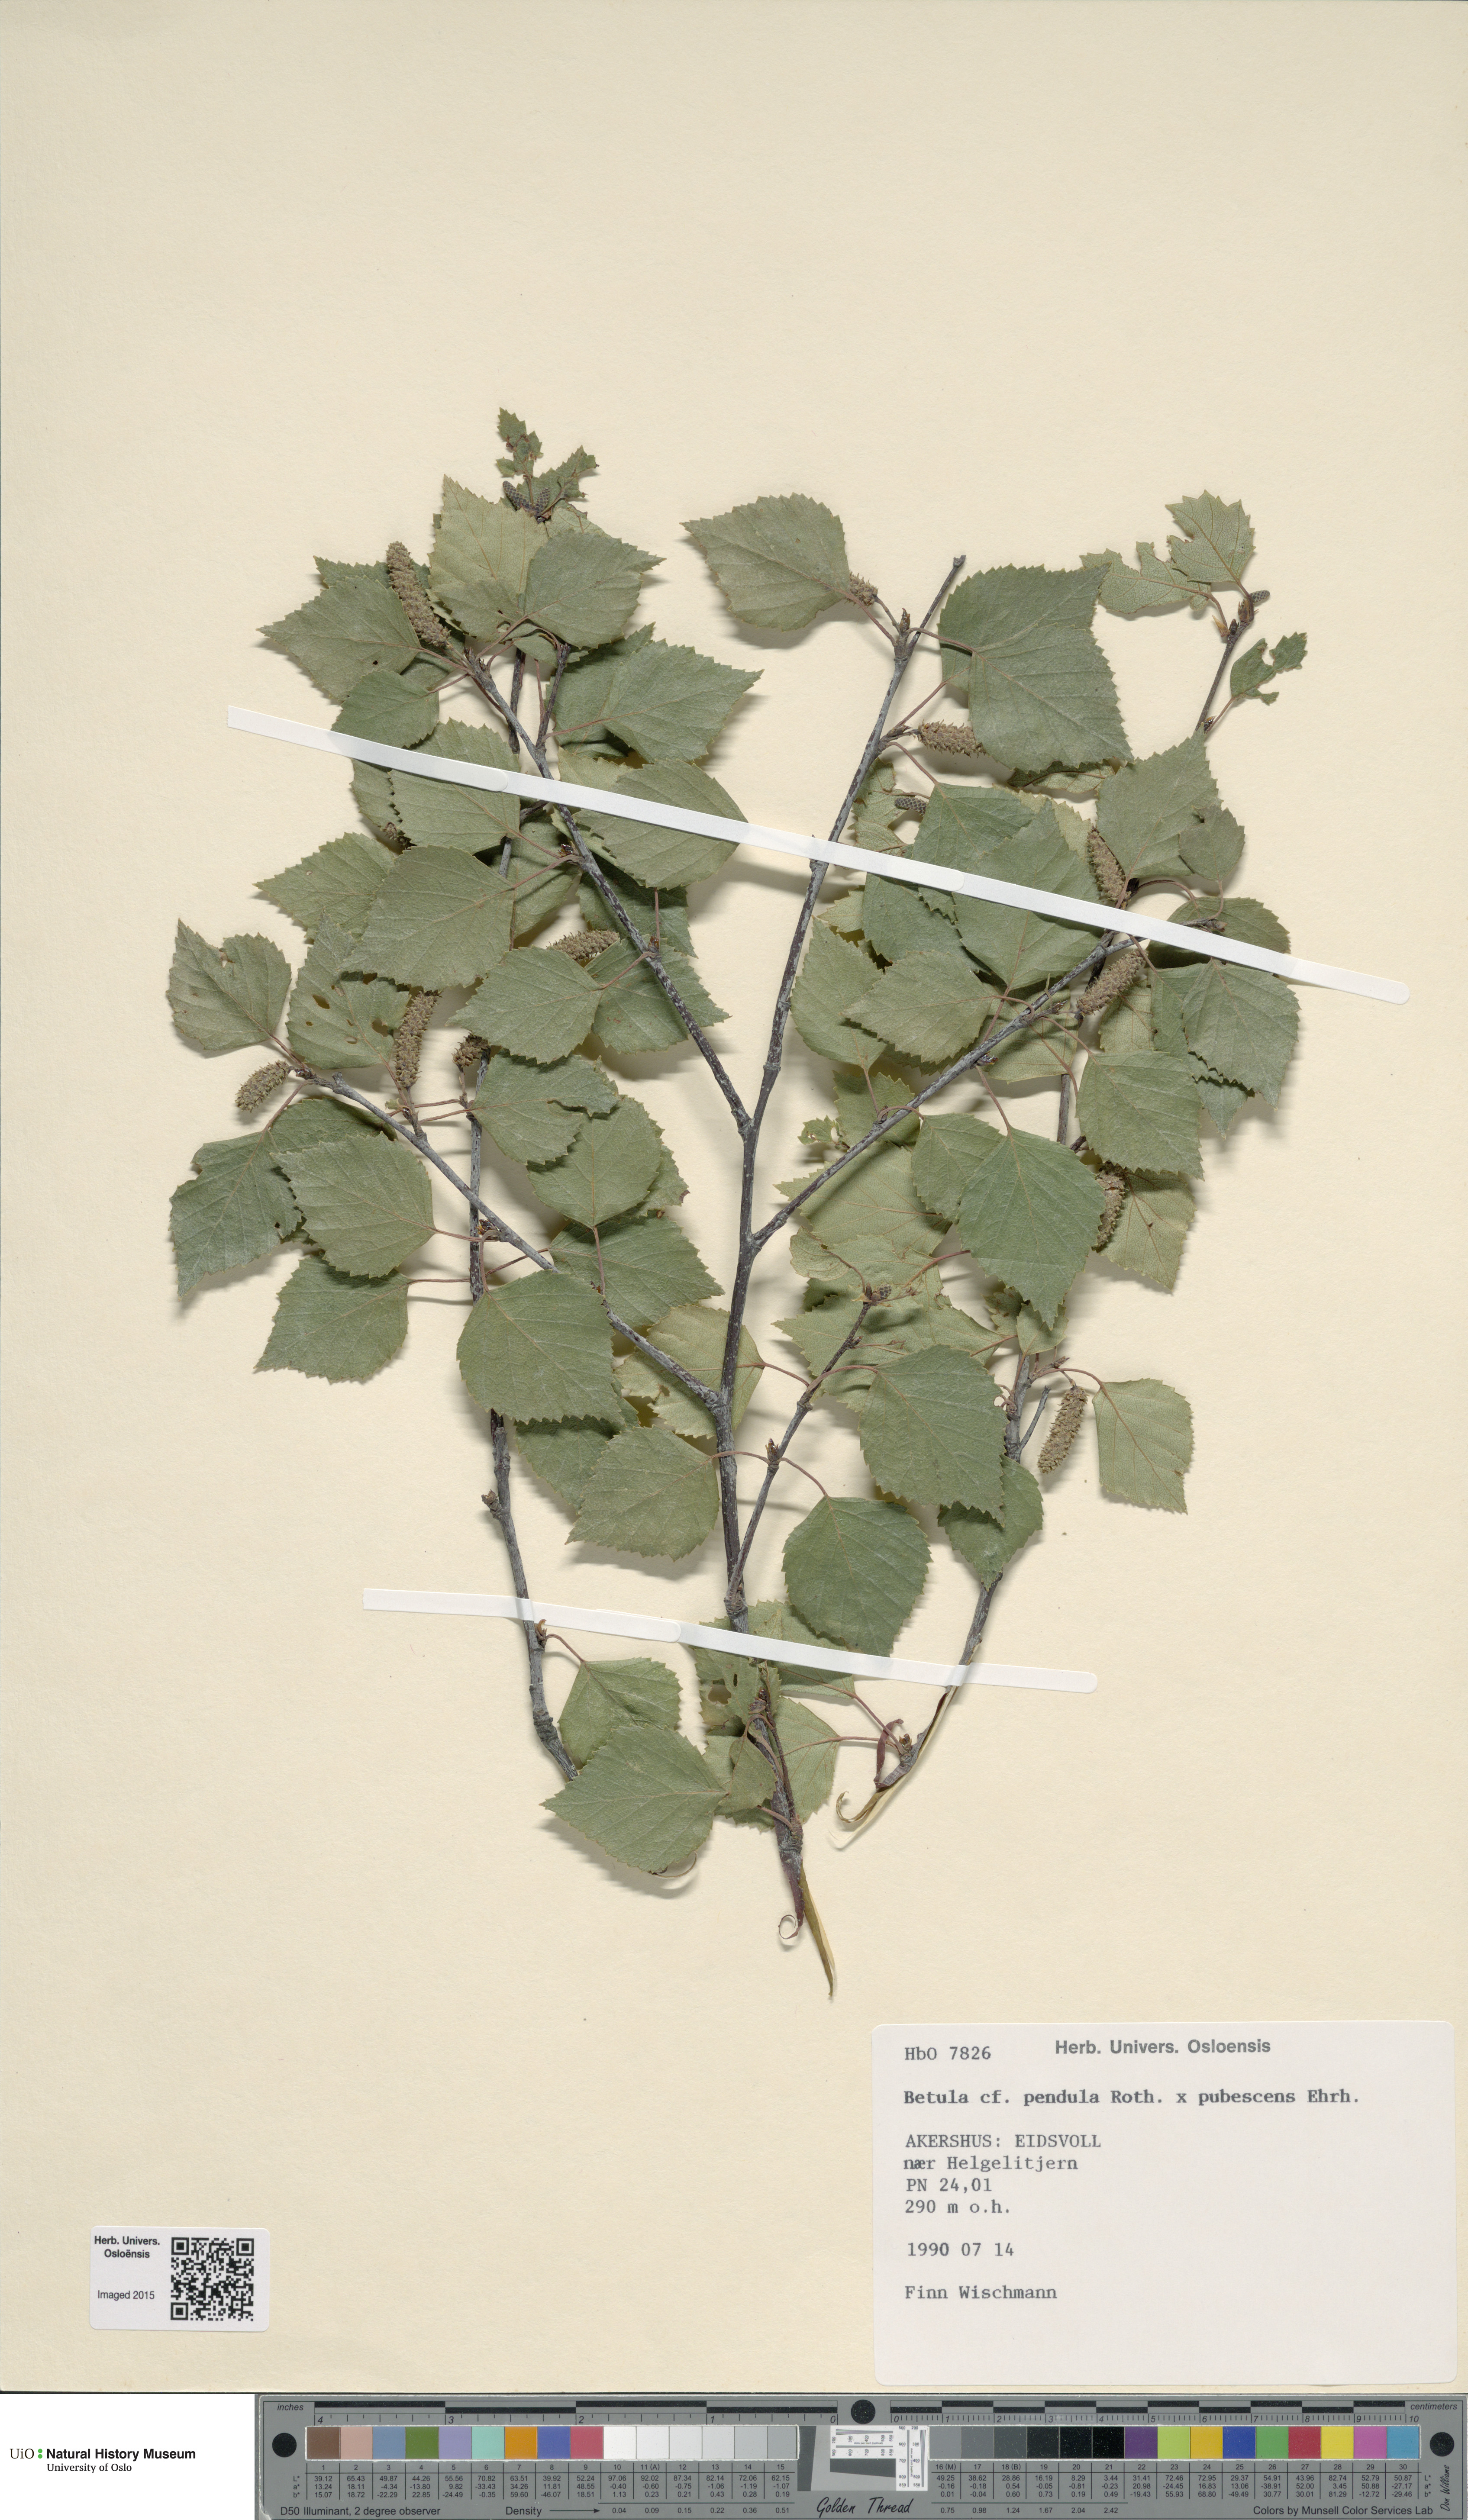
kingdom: Plantae
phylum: Tracheophyta
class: Magnoliopsida
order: Fagales
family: Betulaceae
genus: Betula
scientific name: Betula
